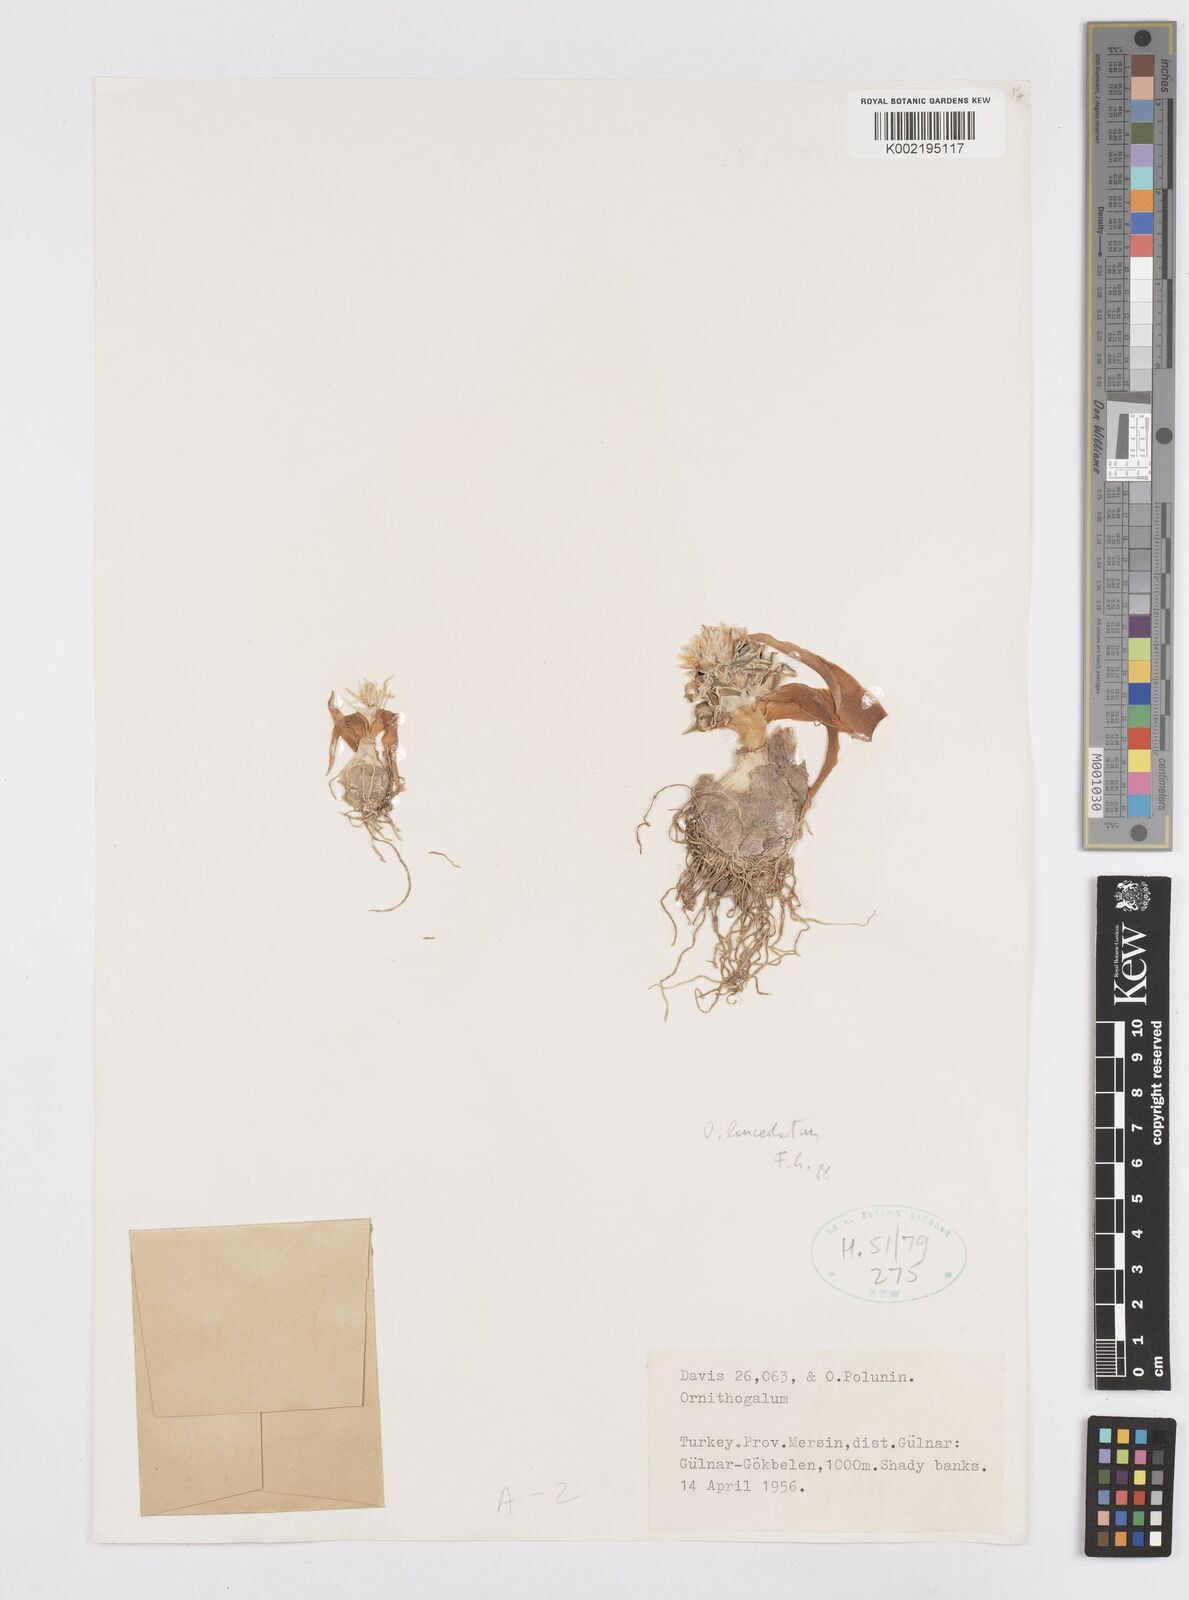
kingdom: Plantae
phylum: Tracheophyta
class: Liliopsida
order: Asparagales
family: Asparagaceae
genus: Ornithogalum
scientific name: Ornithogalum lanceolatum
